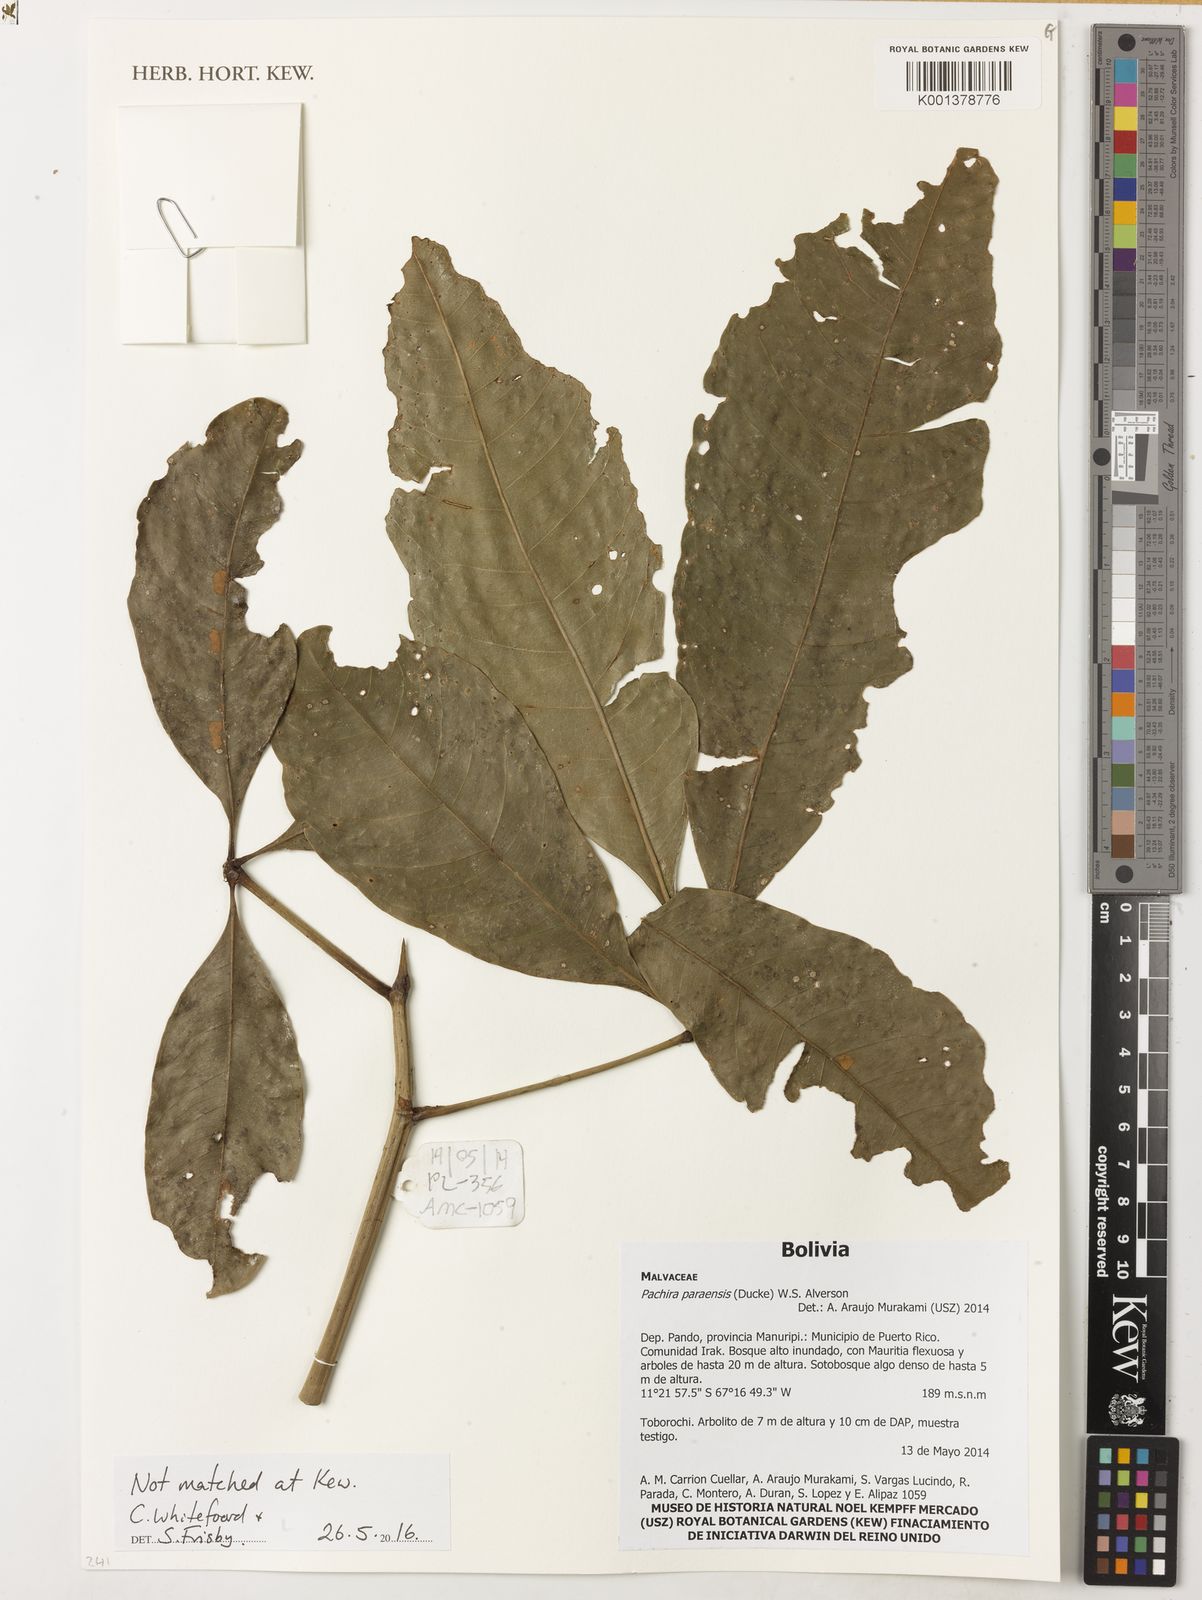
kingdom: Plantae
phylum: Tracheophyta
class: Magnoliopsida
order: Malvales
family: Malvaceae
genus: Pachira
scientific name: Pachira paraensis
